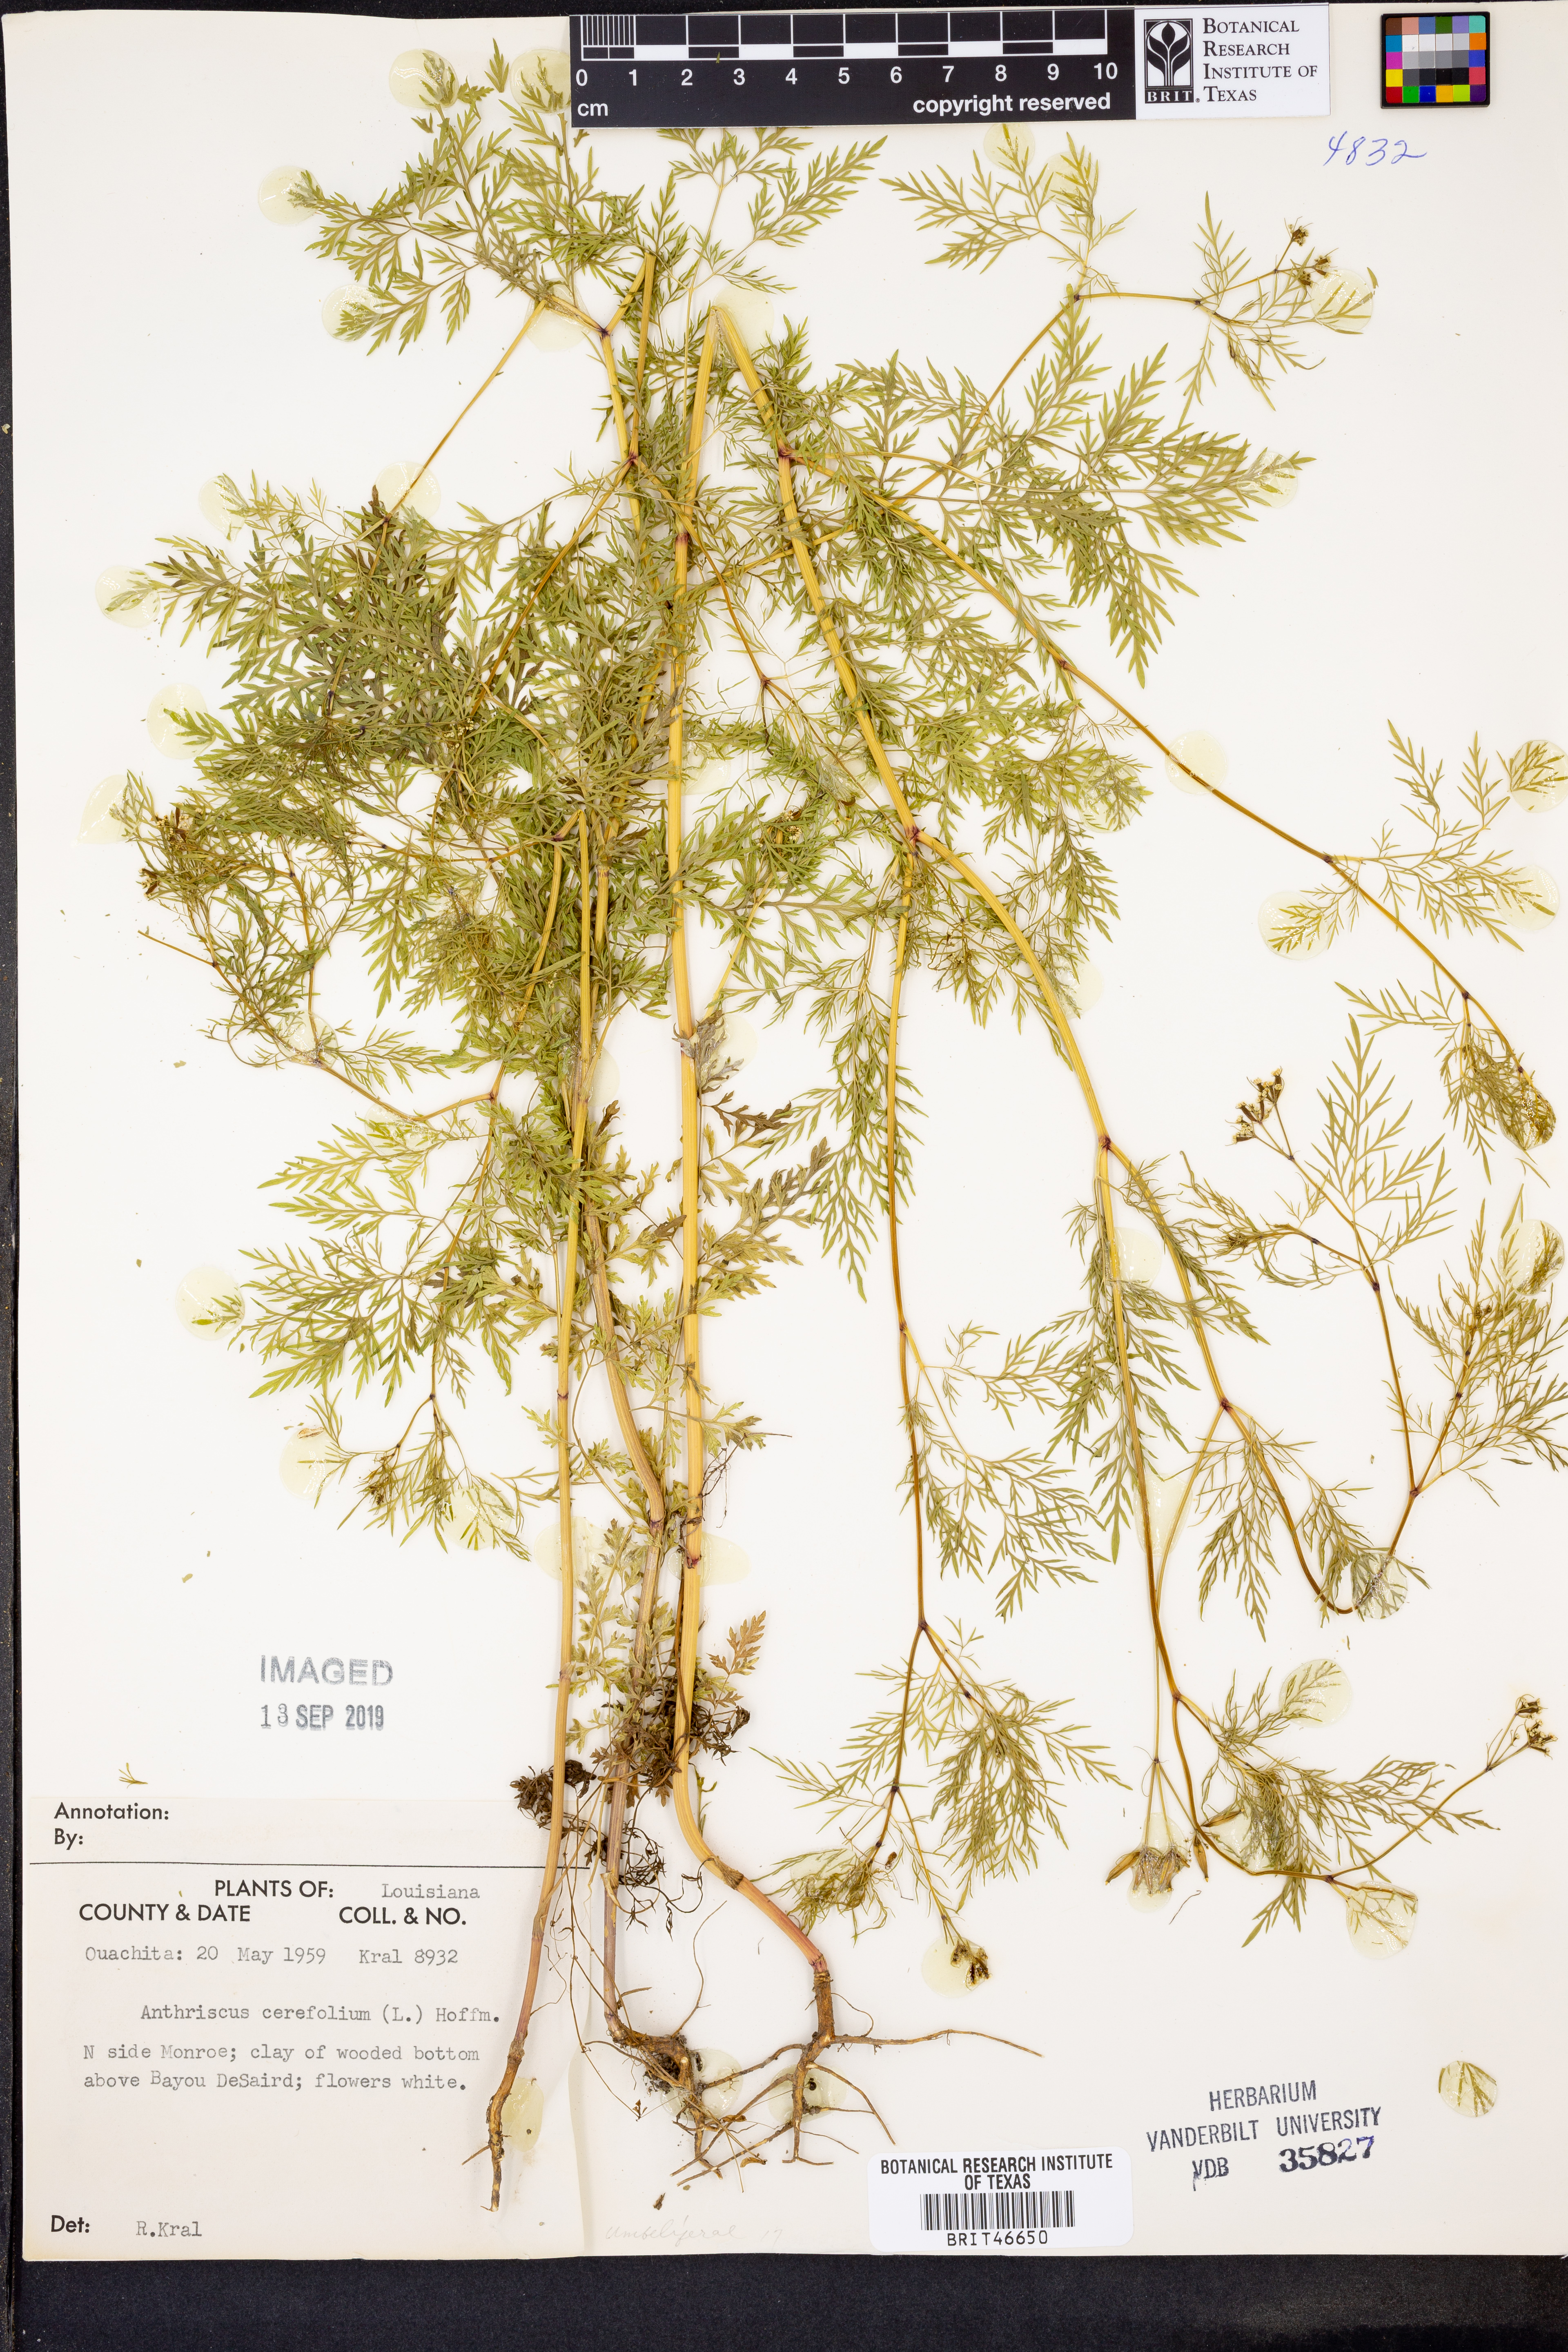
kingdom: Plantae
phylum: Tracheophyta
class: Magnoliopsida
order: Apiales
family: Apiaceae
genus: Anthriscus
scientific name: Anthriscus cerefolium
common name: Garden chervil
